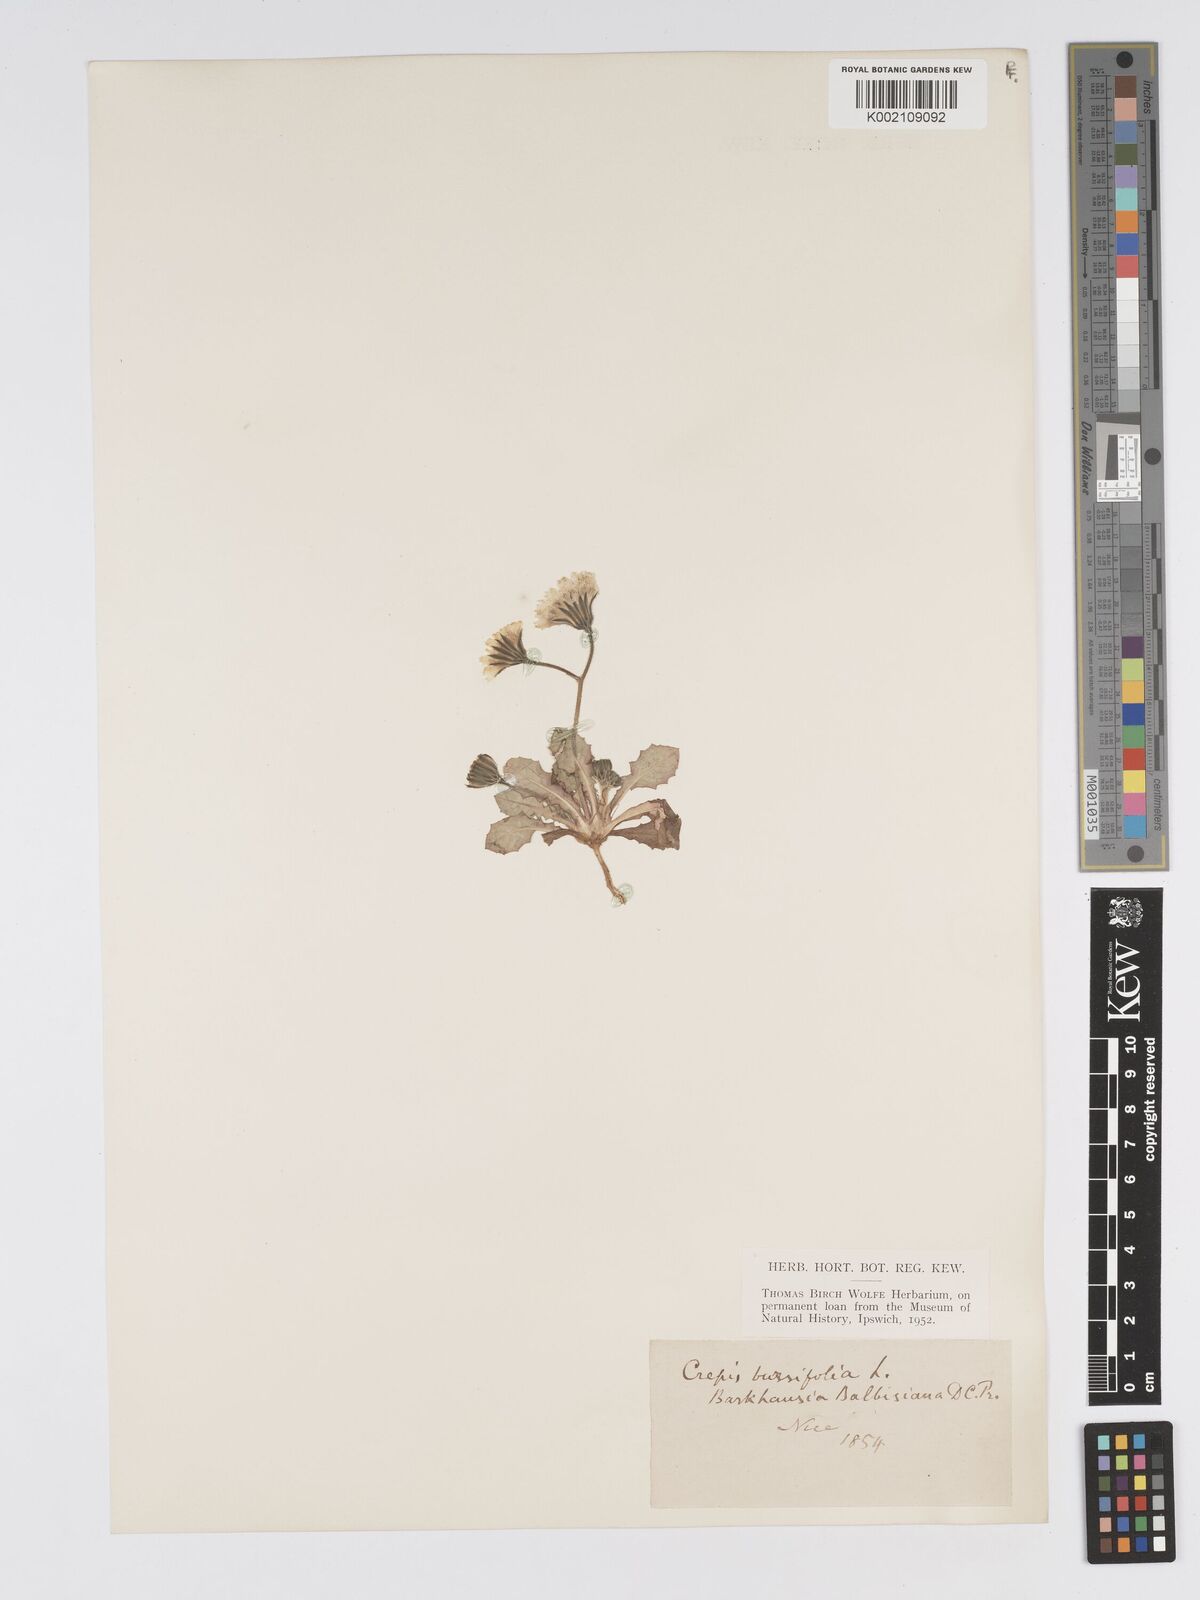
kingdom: Plantae
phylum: Tracheophyta
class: Magnoliopsida
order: Asterales
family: Asteraceae
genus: Crepis
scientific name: Crepis bursifolia
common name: Italian hawksbeard
